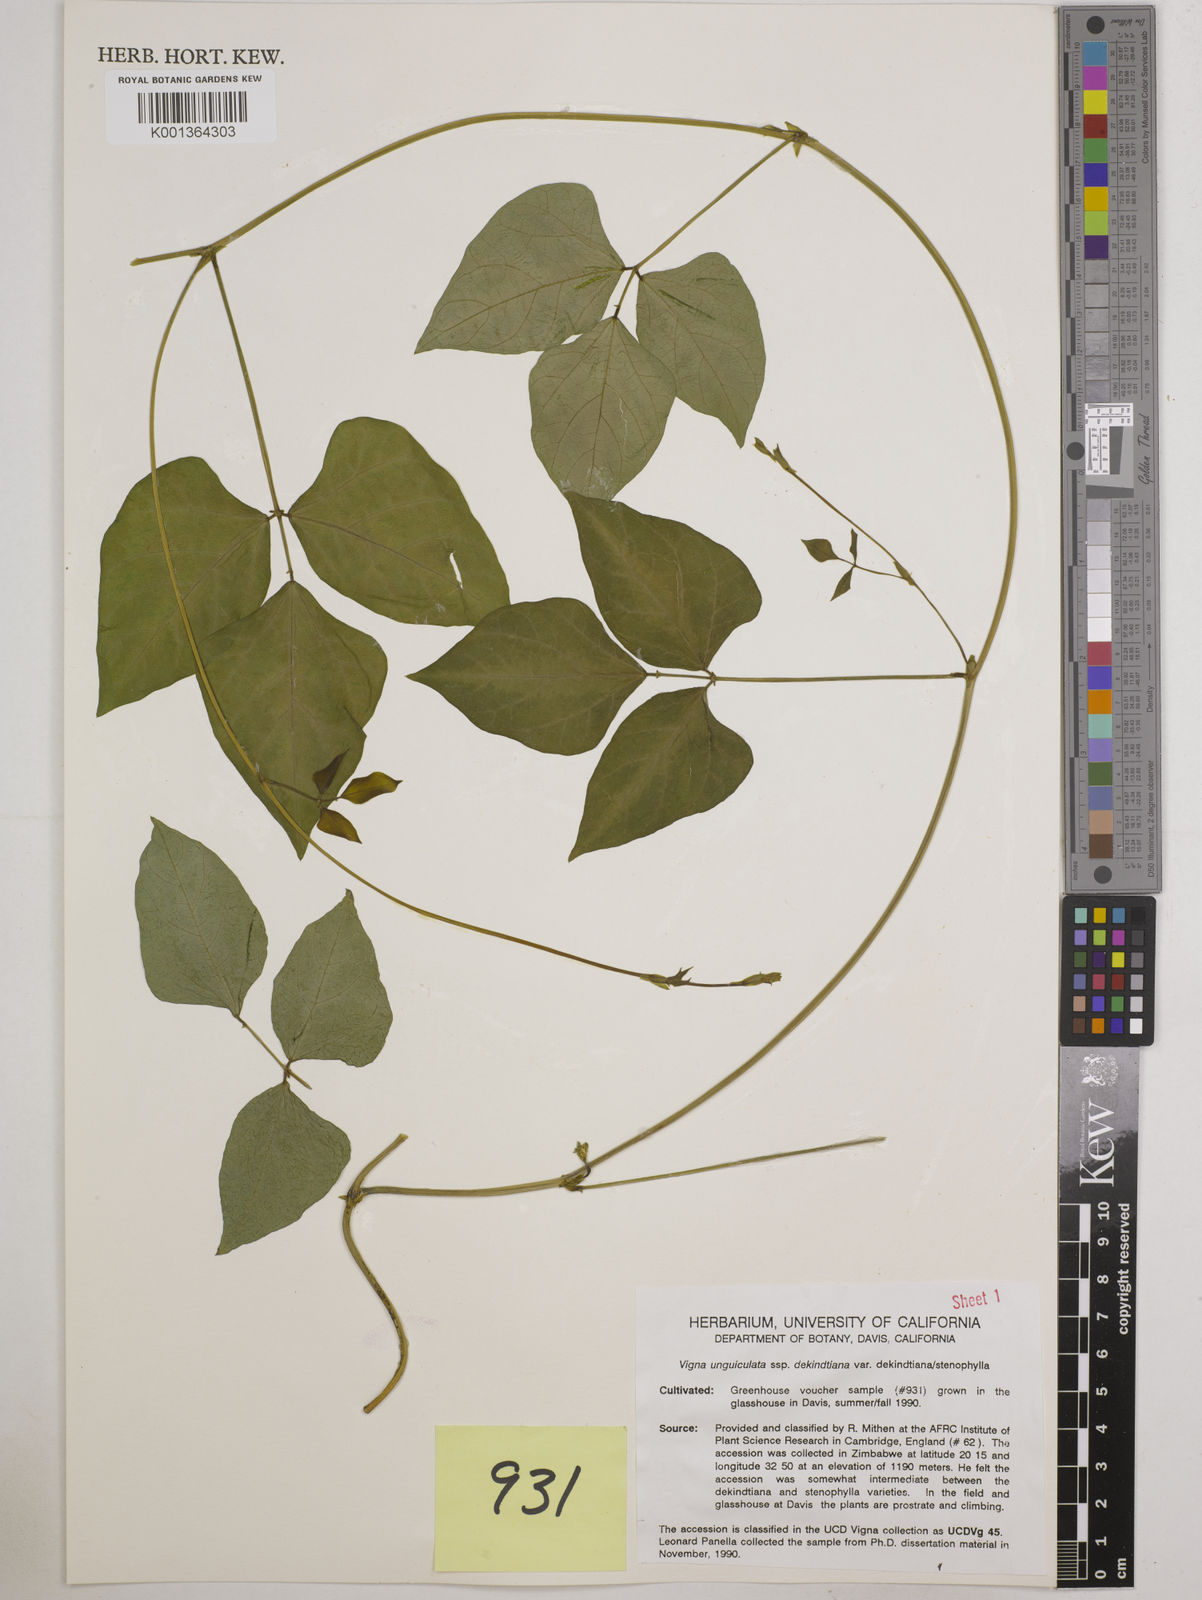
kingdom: Plantae
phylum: Tracheophyta
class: Magnoliopsida
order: Fabales
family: Fabaceae
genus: Vigna
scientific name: Vigna
